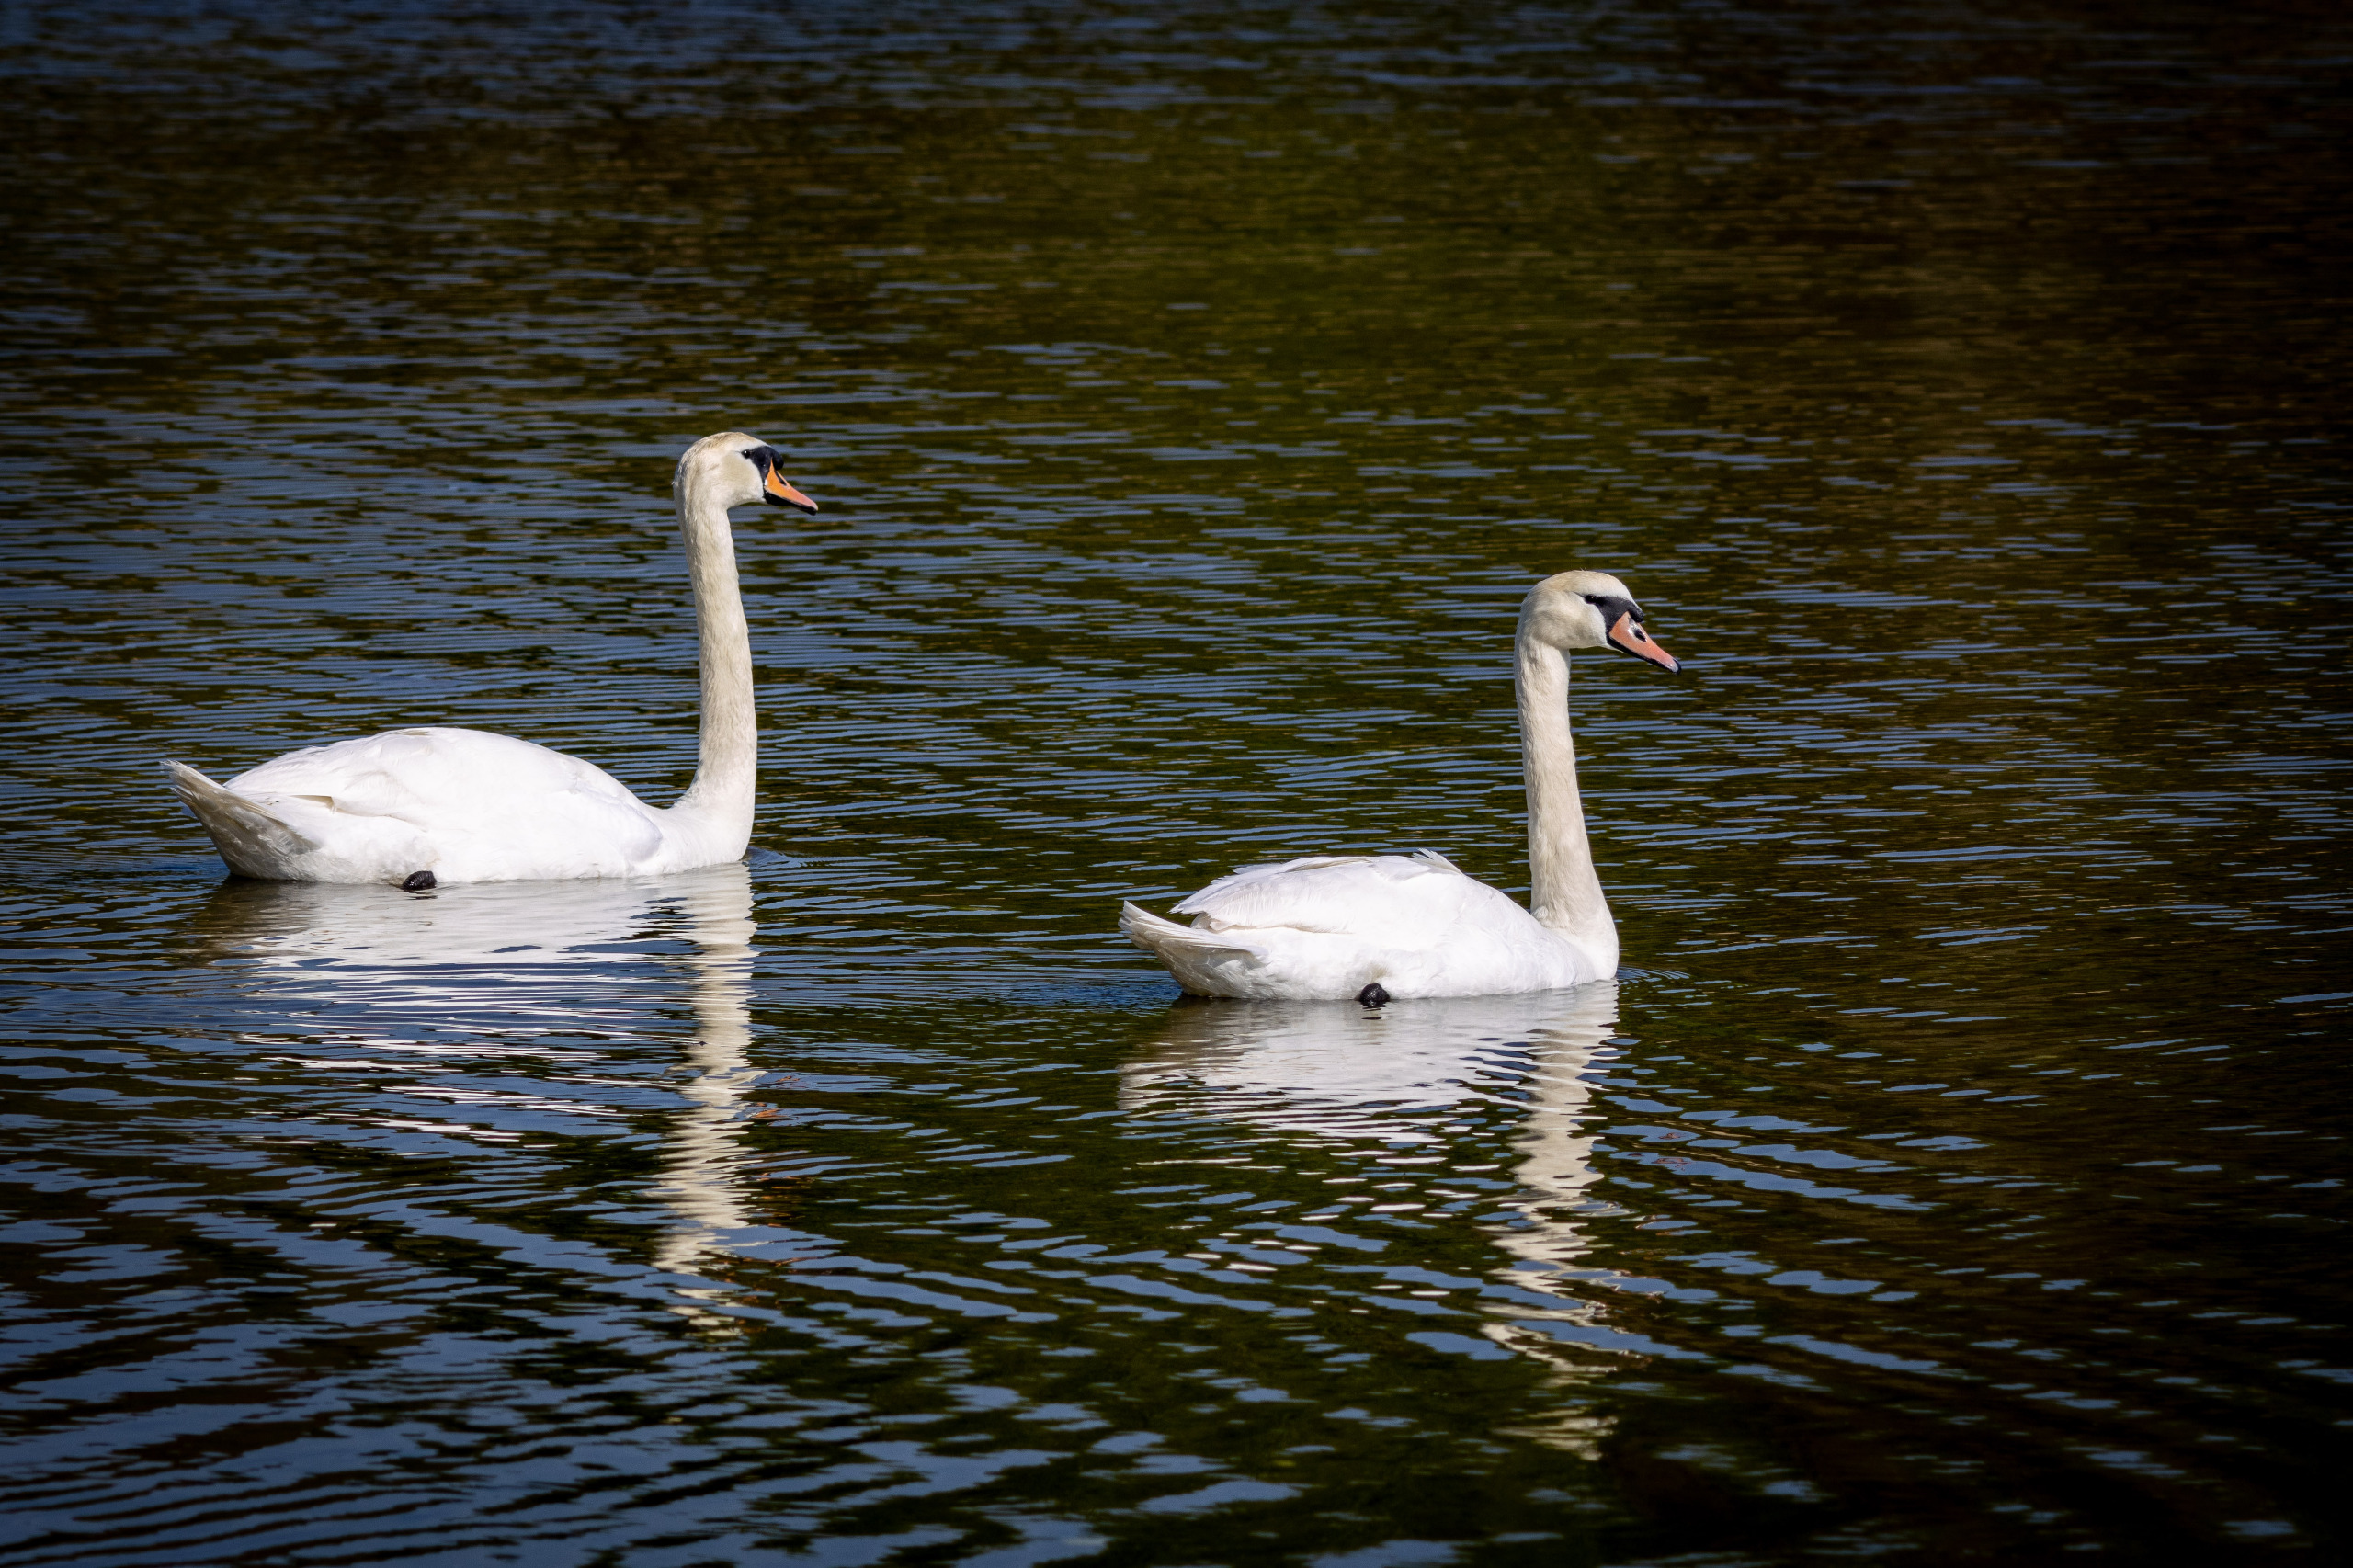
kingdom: Animalia
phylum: Chordata
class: Aves
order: Anseriformes
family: Anatidae
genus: Cygnus
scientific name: Cygnus olor
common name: Knopsvane
